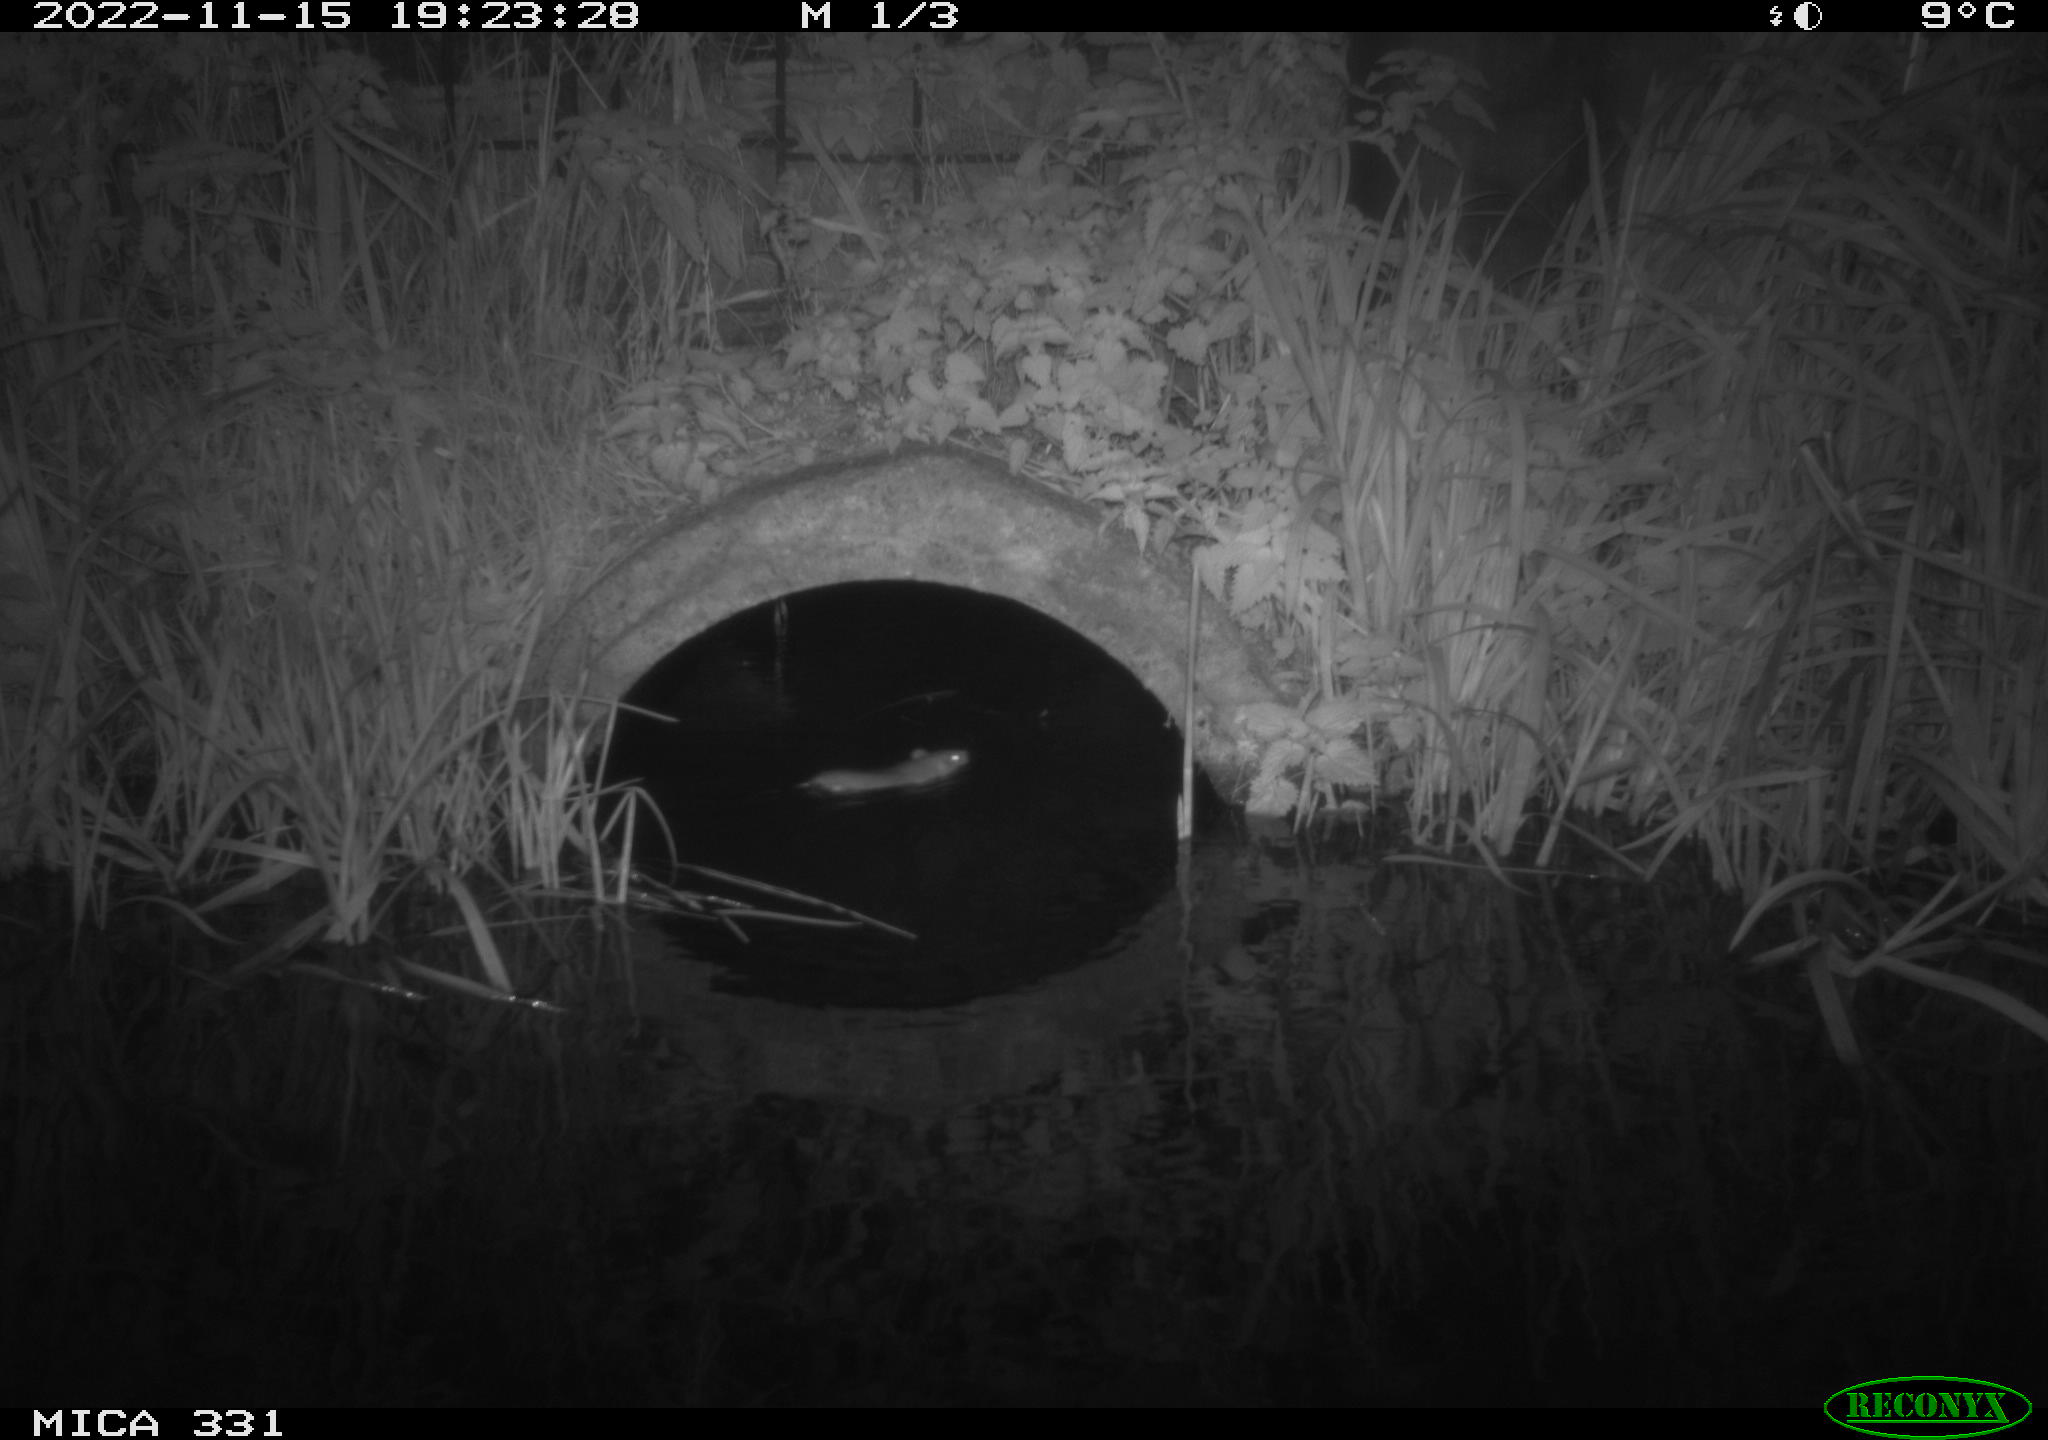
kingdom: Animalia
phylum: Chordata
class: Mammalia
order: Rodentia
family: Muridae
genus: Rattus
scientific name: Rattus norvegicus
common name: Brown rat
